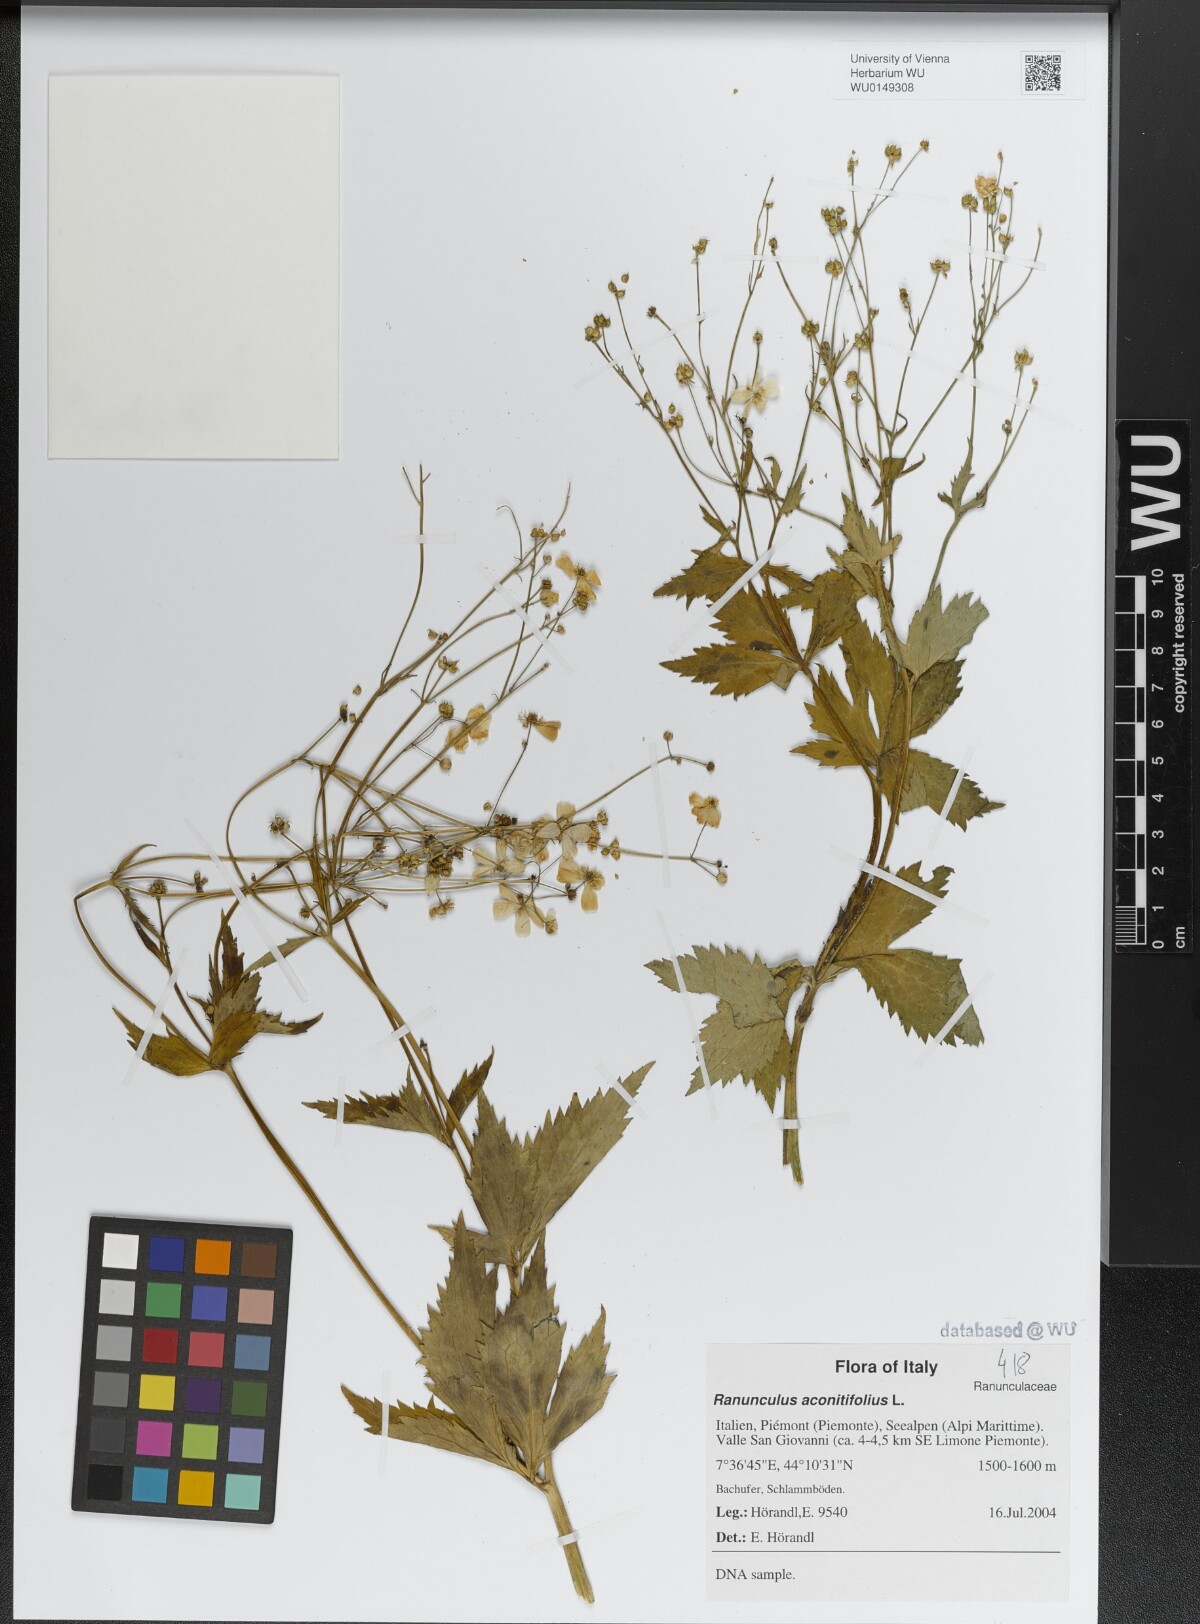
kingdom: Plantae
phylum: Tracheophyta
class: Magnoliopsida
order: Ranunculales
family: Ranunculaceae
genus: Ranunculus
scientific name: Ranunculus aconitifolius
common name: Aconite-leaved buttercup
